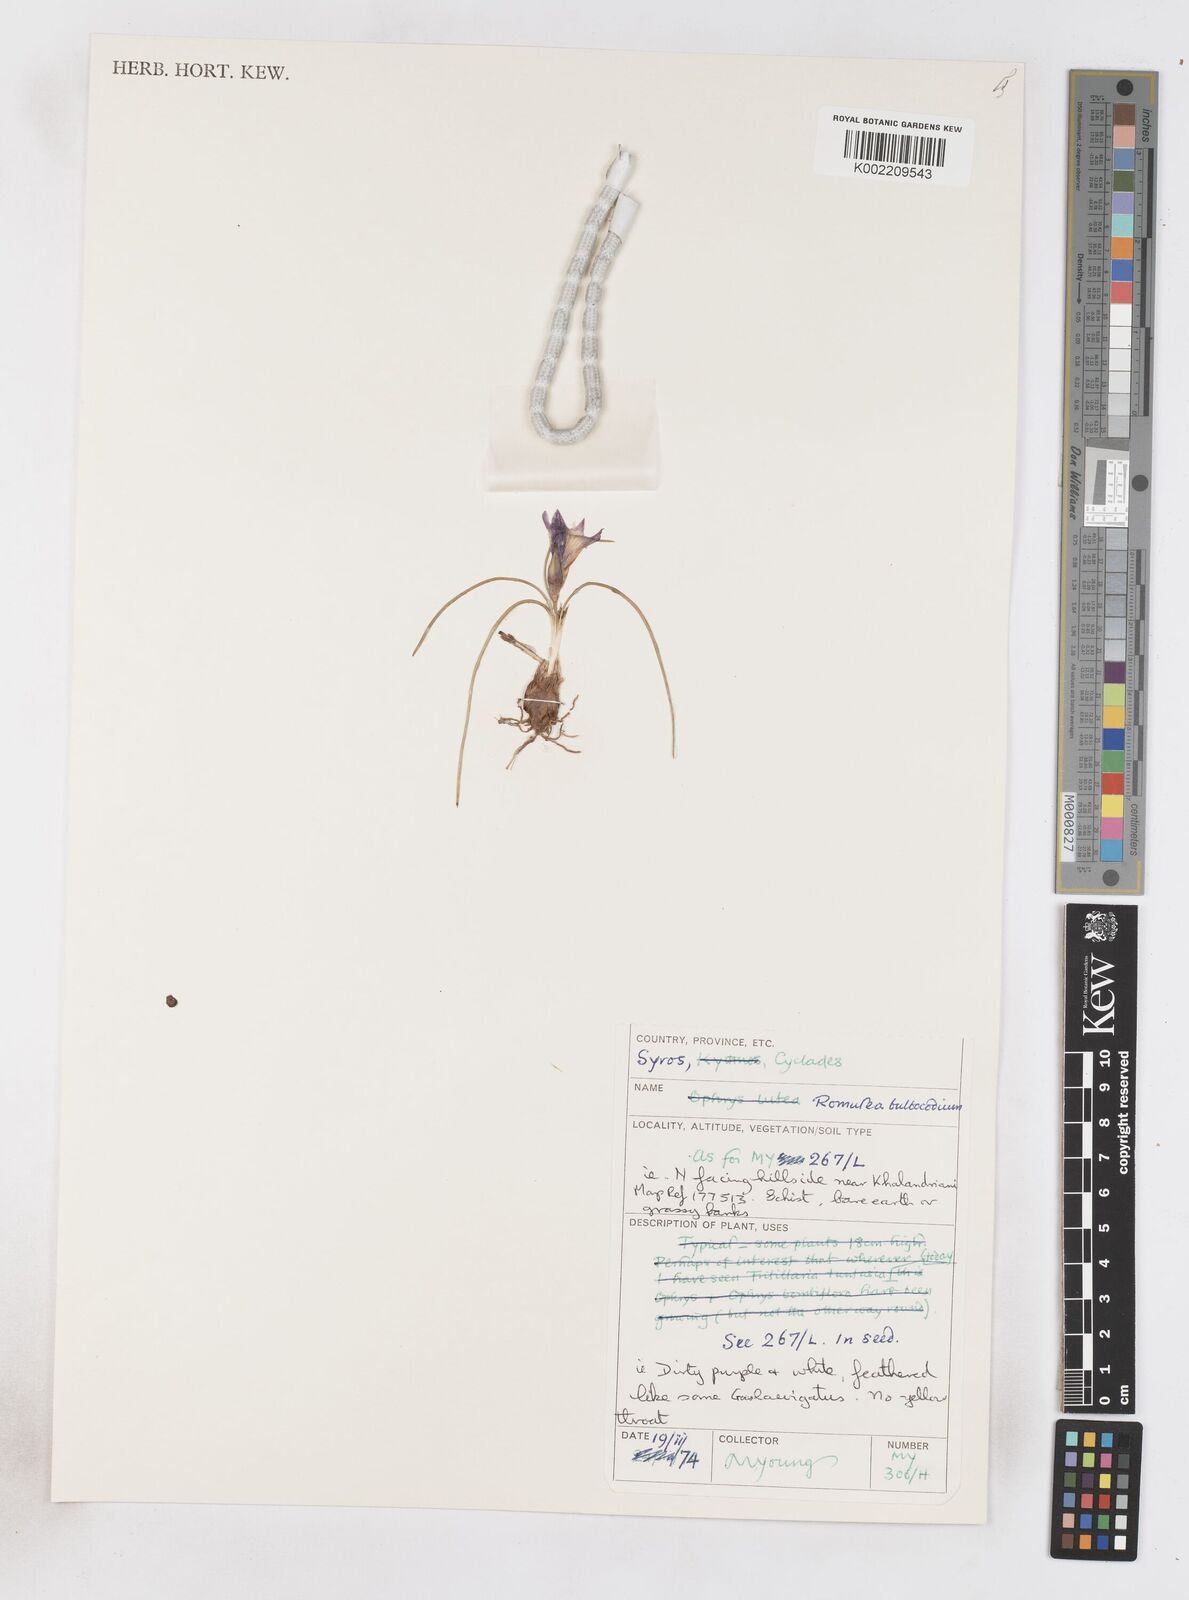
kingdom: Plantae
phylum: Tracheophyta
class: Liliopsida
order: Asparagales
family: Iridaceae
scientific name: Iridaceae
